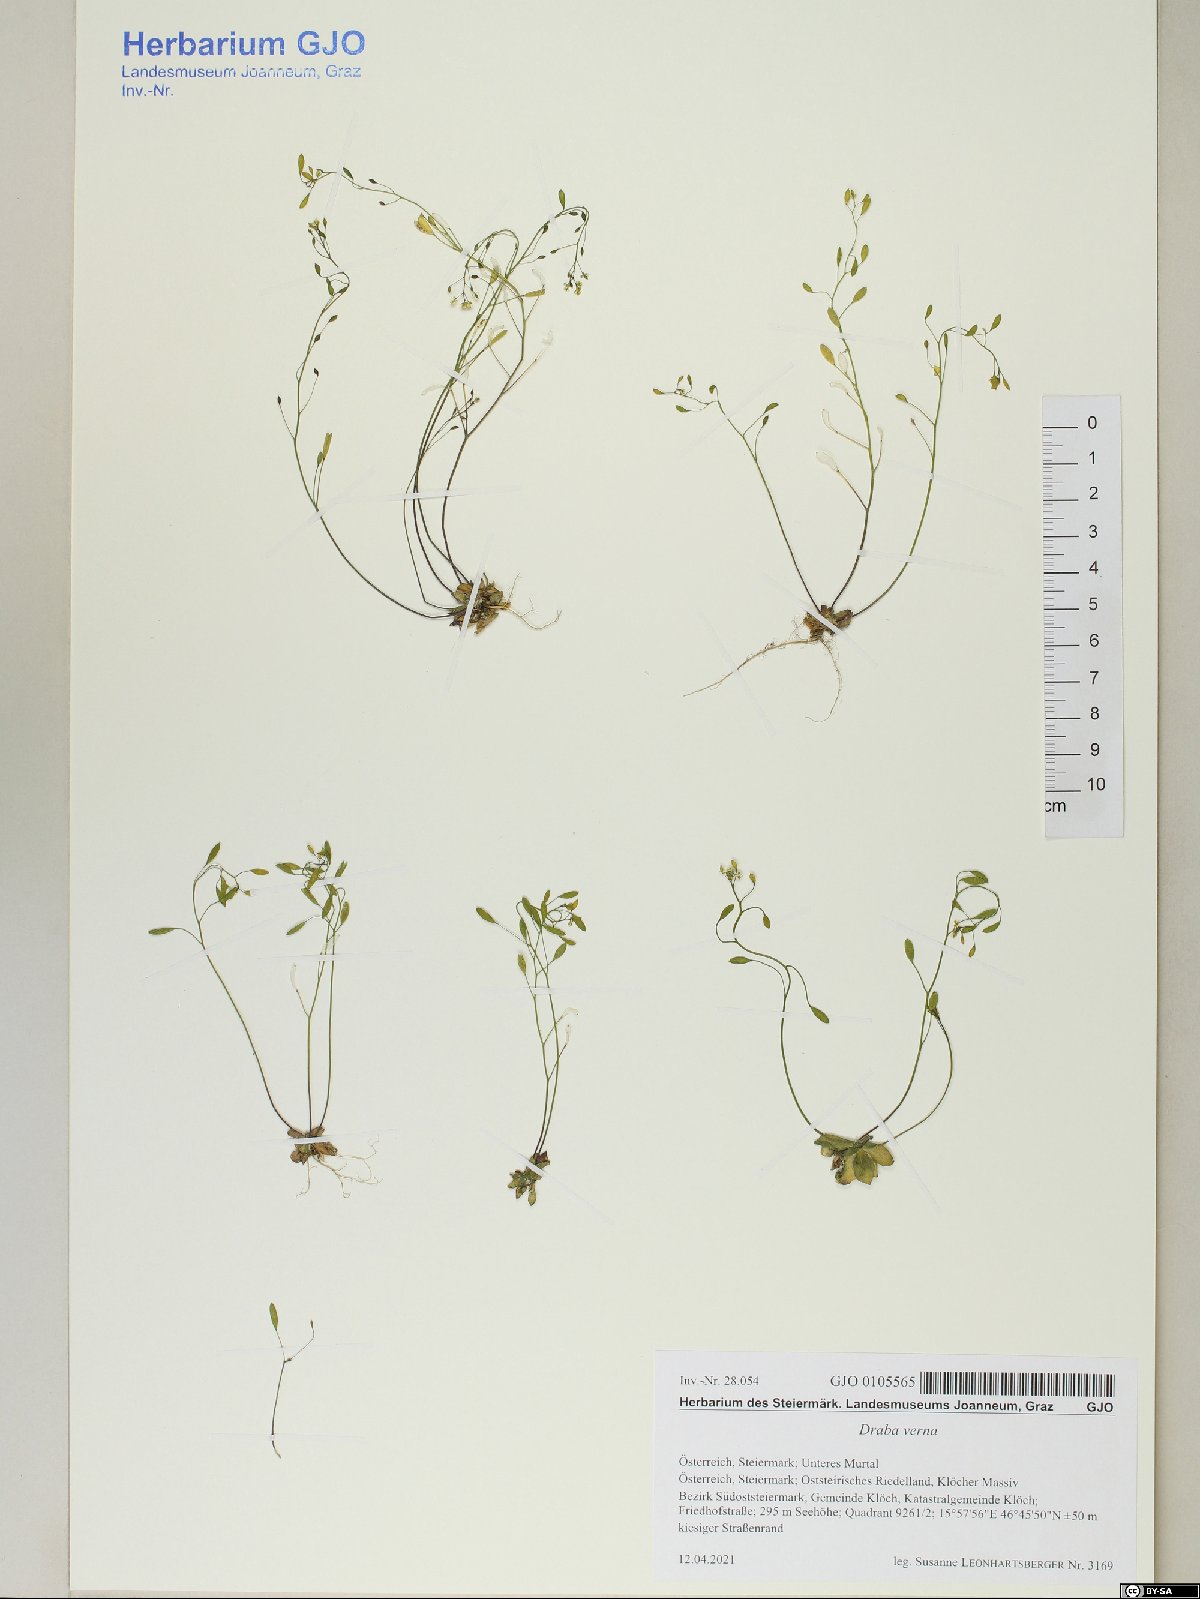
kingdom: Plantae
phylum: Tracheophyta
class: Magnoliopsida
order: Brassicales
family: Brassicaceae
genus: Draba
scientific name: Draba verna
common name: Spring draba
